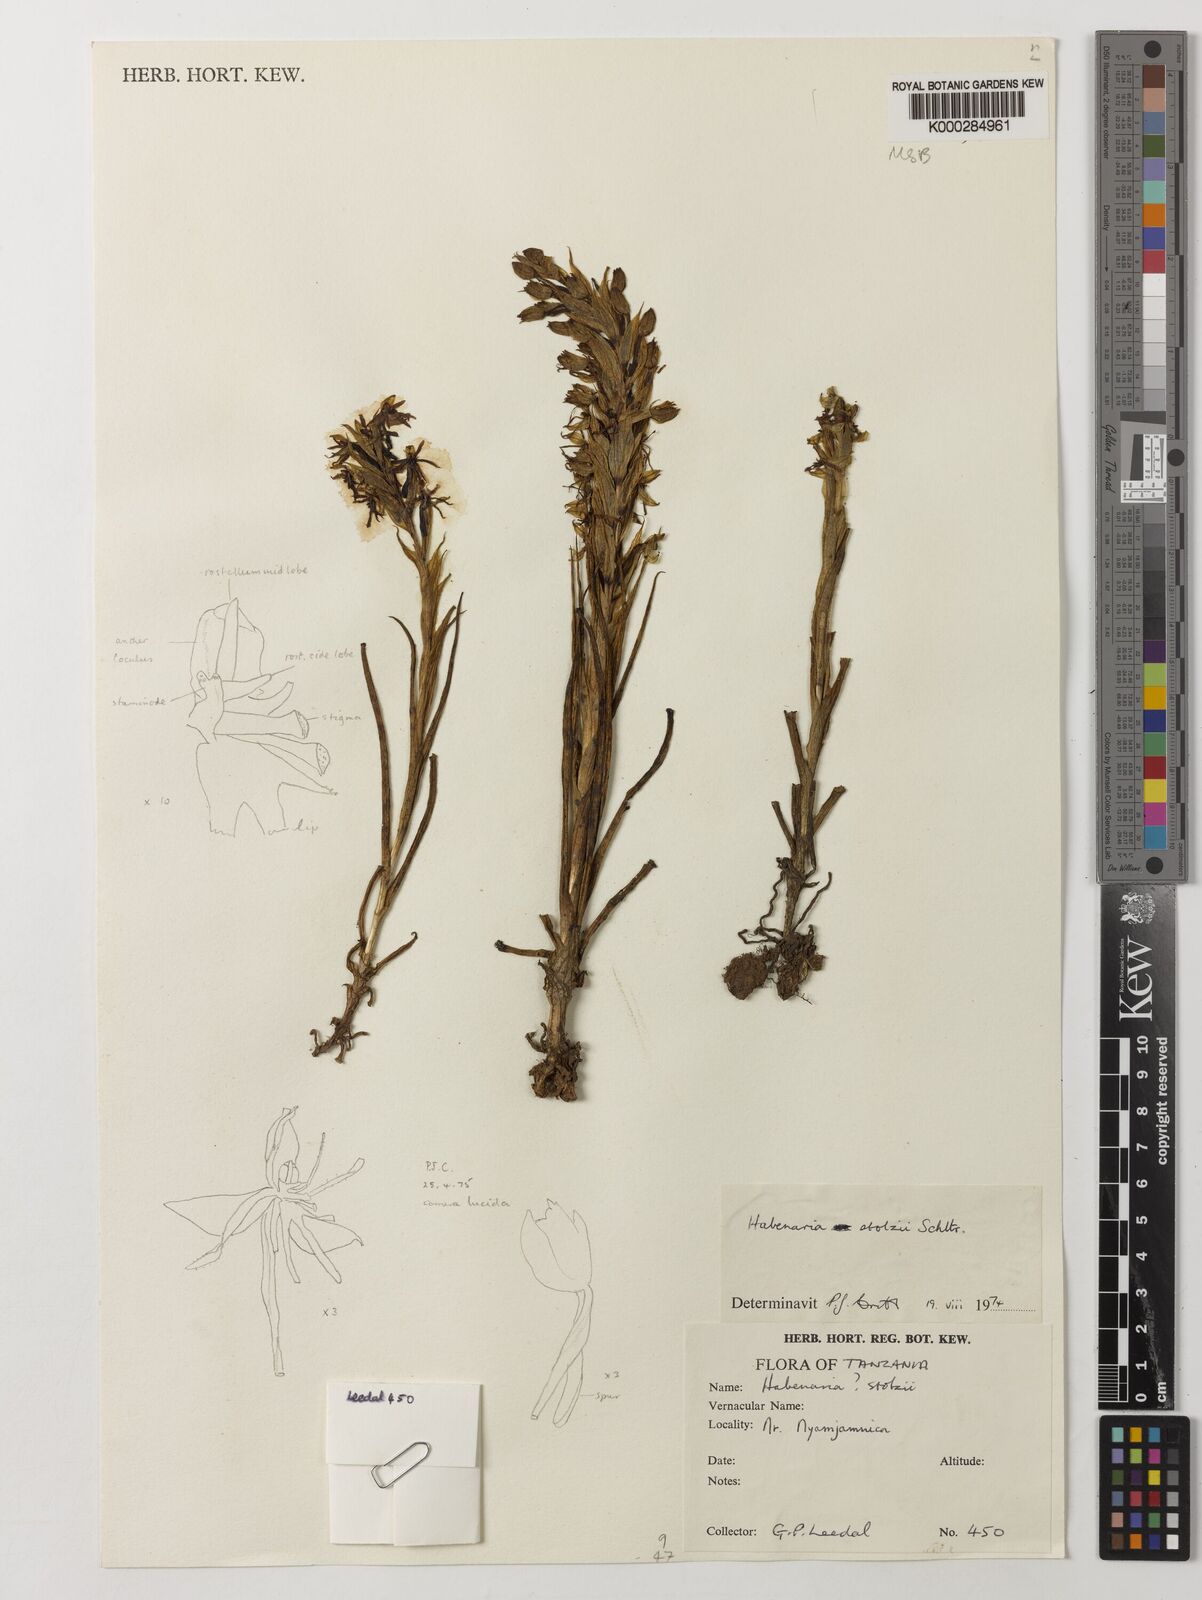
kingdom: Plantae
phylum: Tracheophyta
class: Liliopsida
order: Asparagales
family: Orchidaceae
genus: Habenaria
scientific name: Habenaria stolzii
